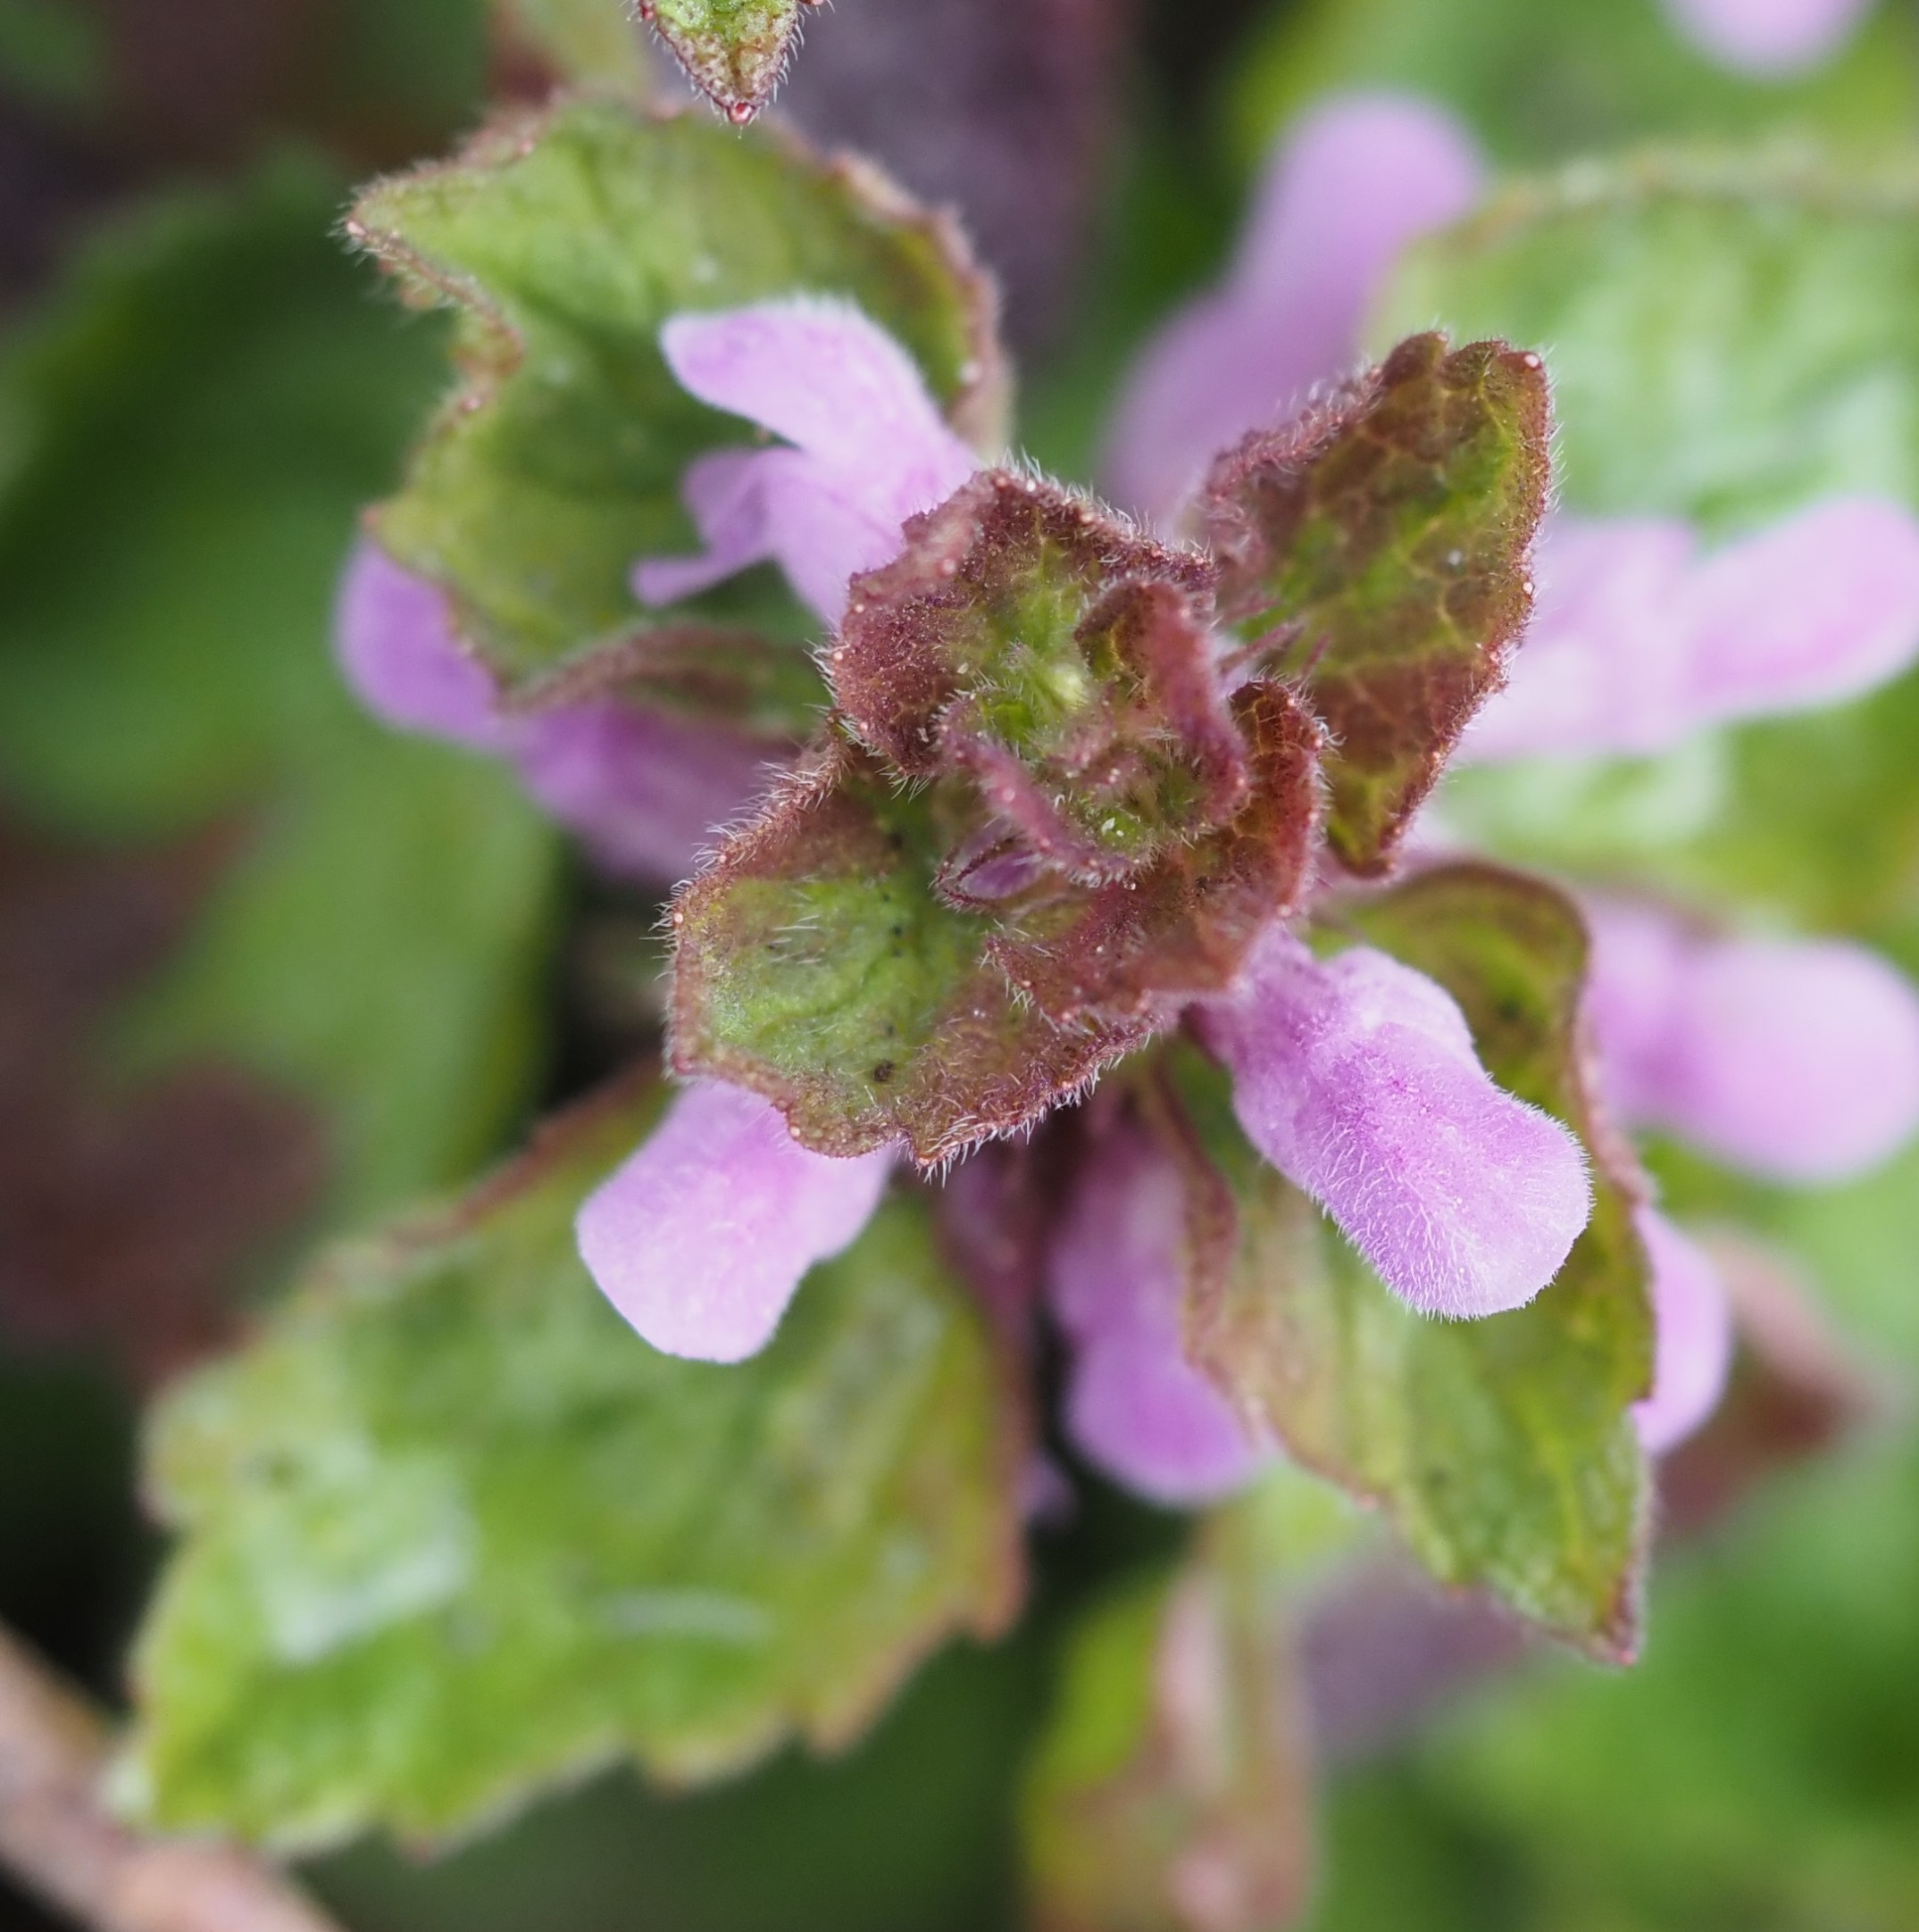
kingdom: Plantae
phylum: Tracheophyta
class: Magnoliopsida
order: Lamiales
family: Lamiaceae
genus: Lamium
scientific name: Lamium purpureum
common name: Rød tvetand
